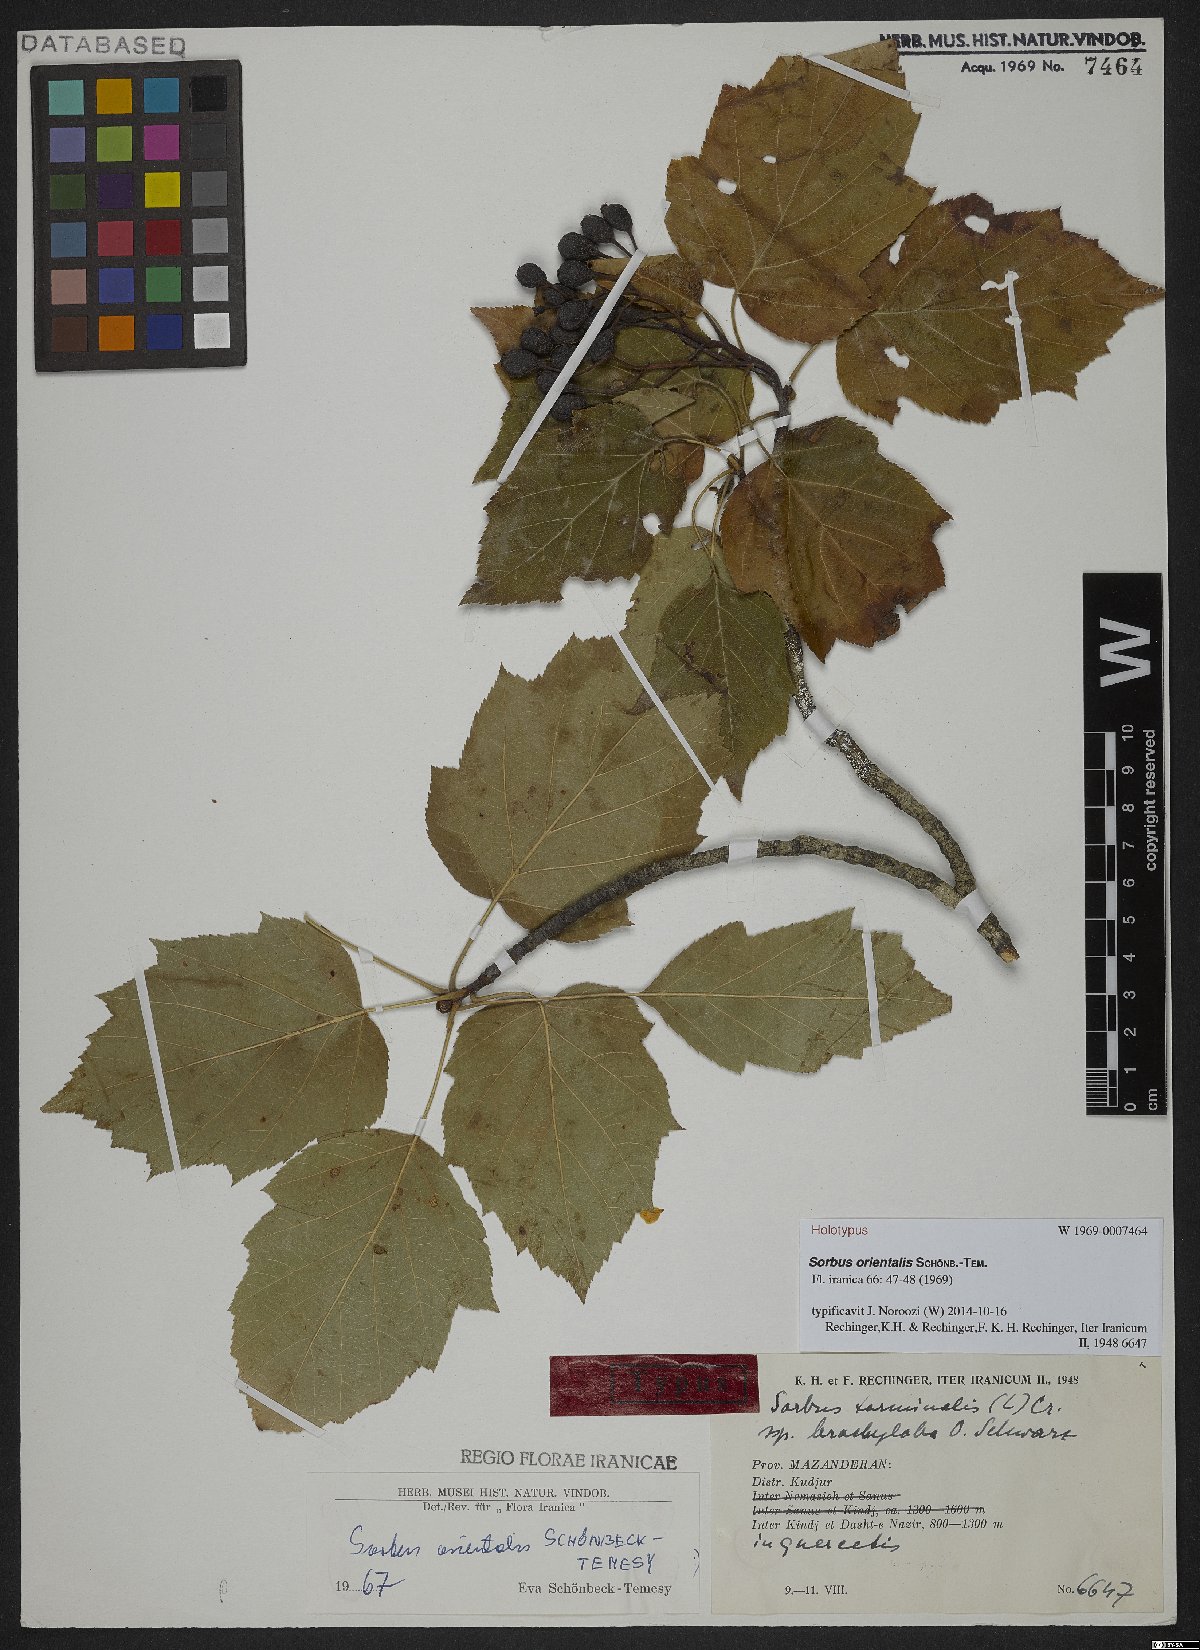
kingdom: Plantae
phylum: Tracheophyta
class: Magnoliopsida
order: Rosales
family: Rosaceae
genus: Torminalis
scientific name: Torminalis glaberrima
